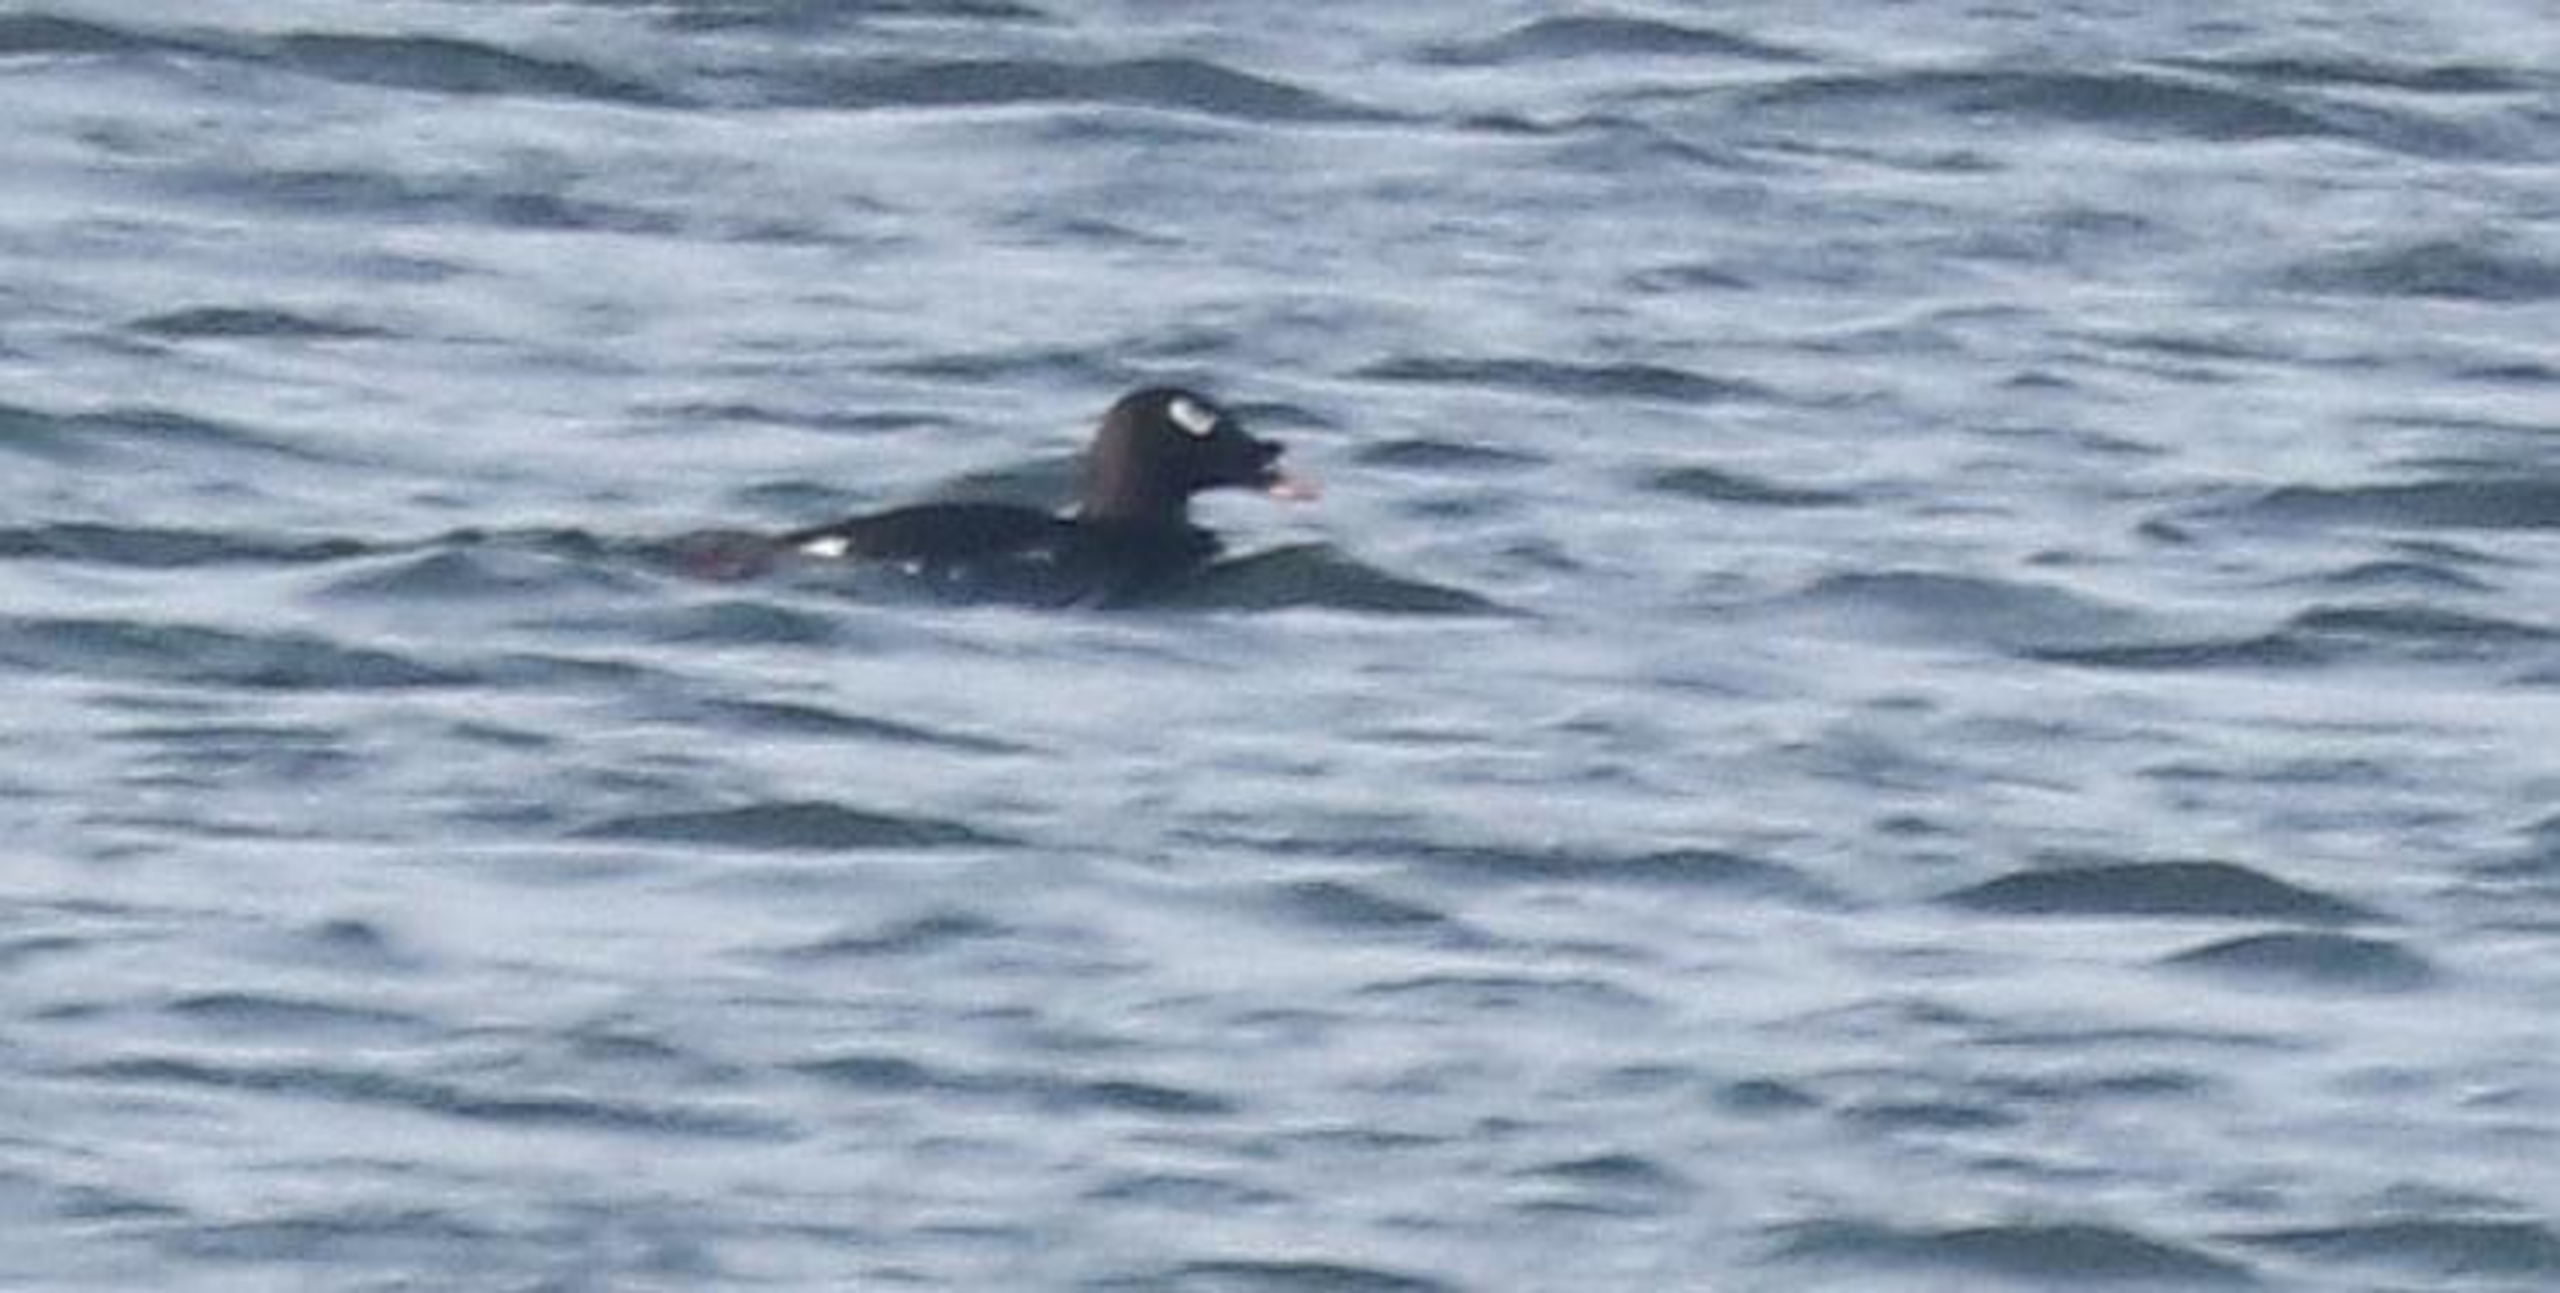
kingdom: Animalia
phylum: Chordata
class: Aves
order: Anseriformes
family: Anatidae
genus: Melanitta
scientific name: Melanitta stejnegeri
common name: Asiatisk fløjlsand
